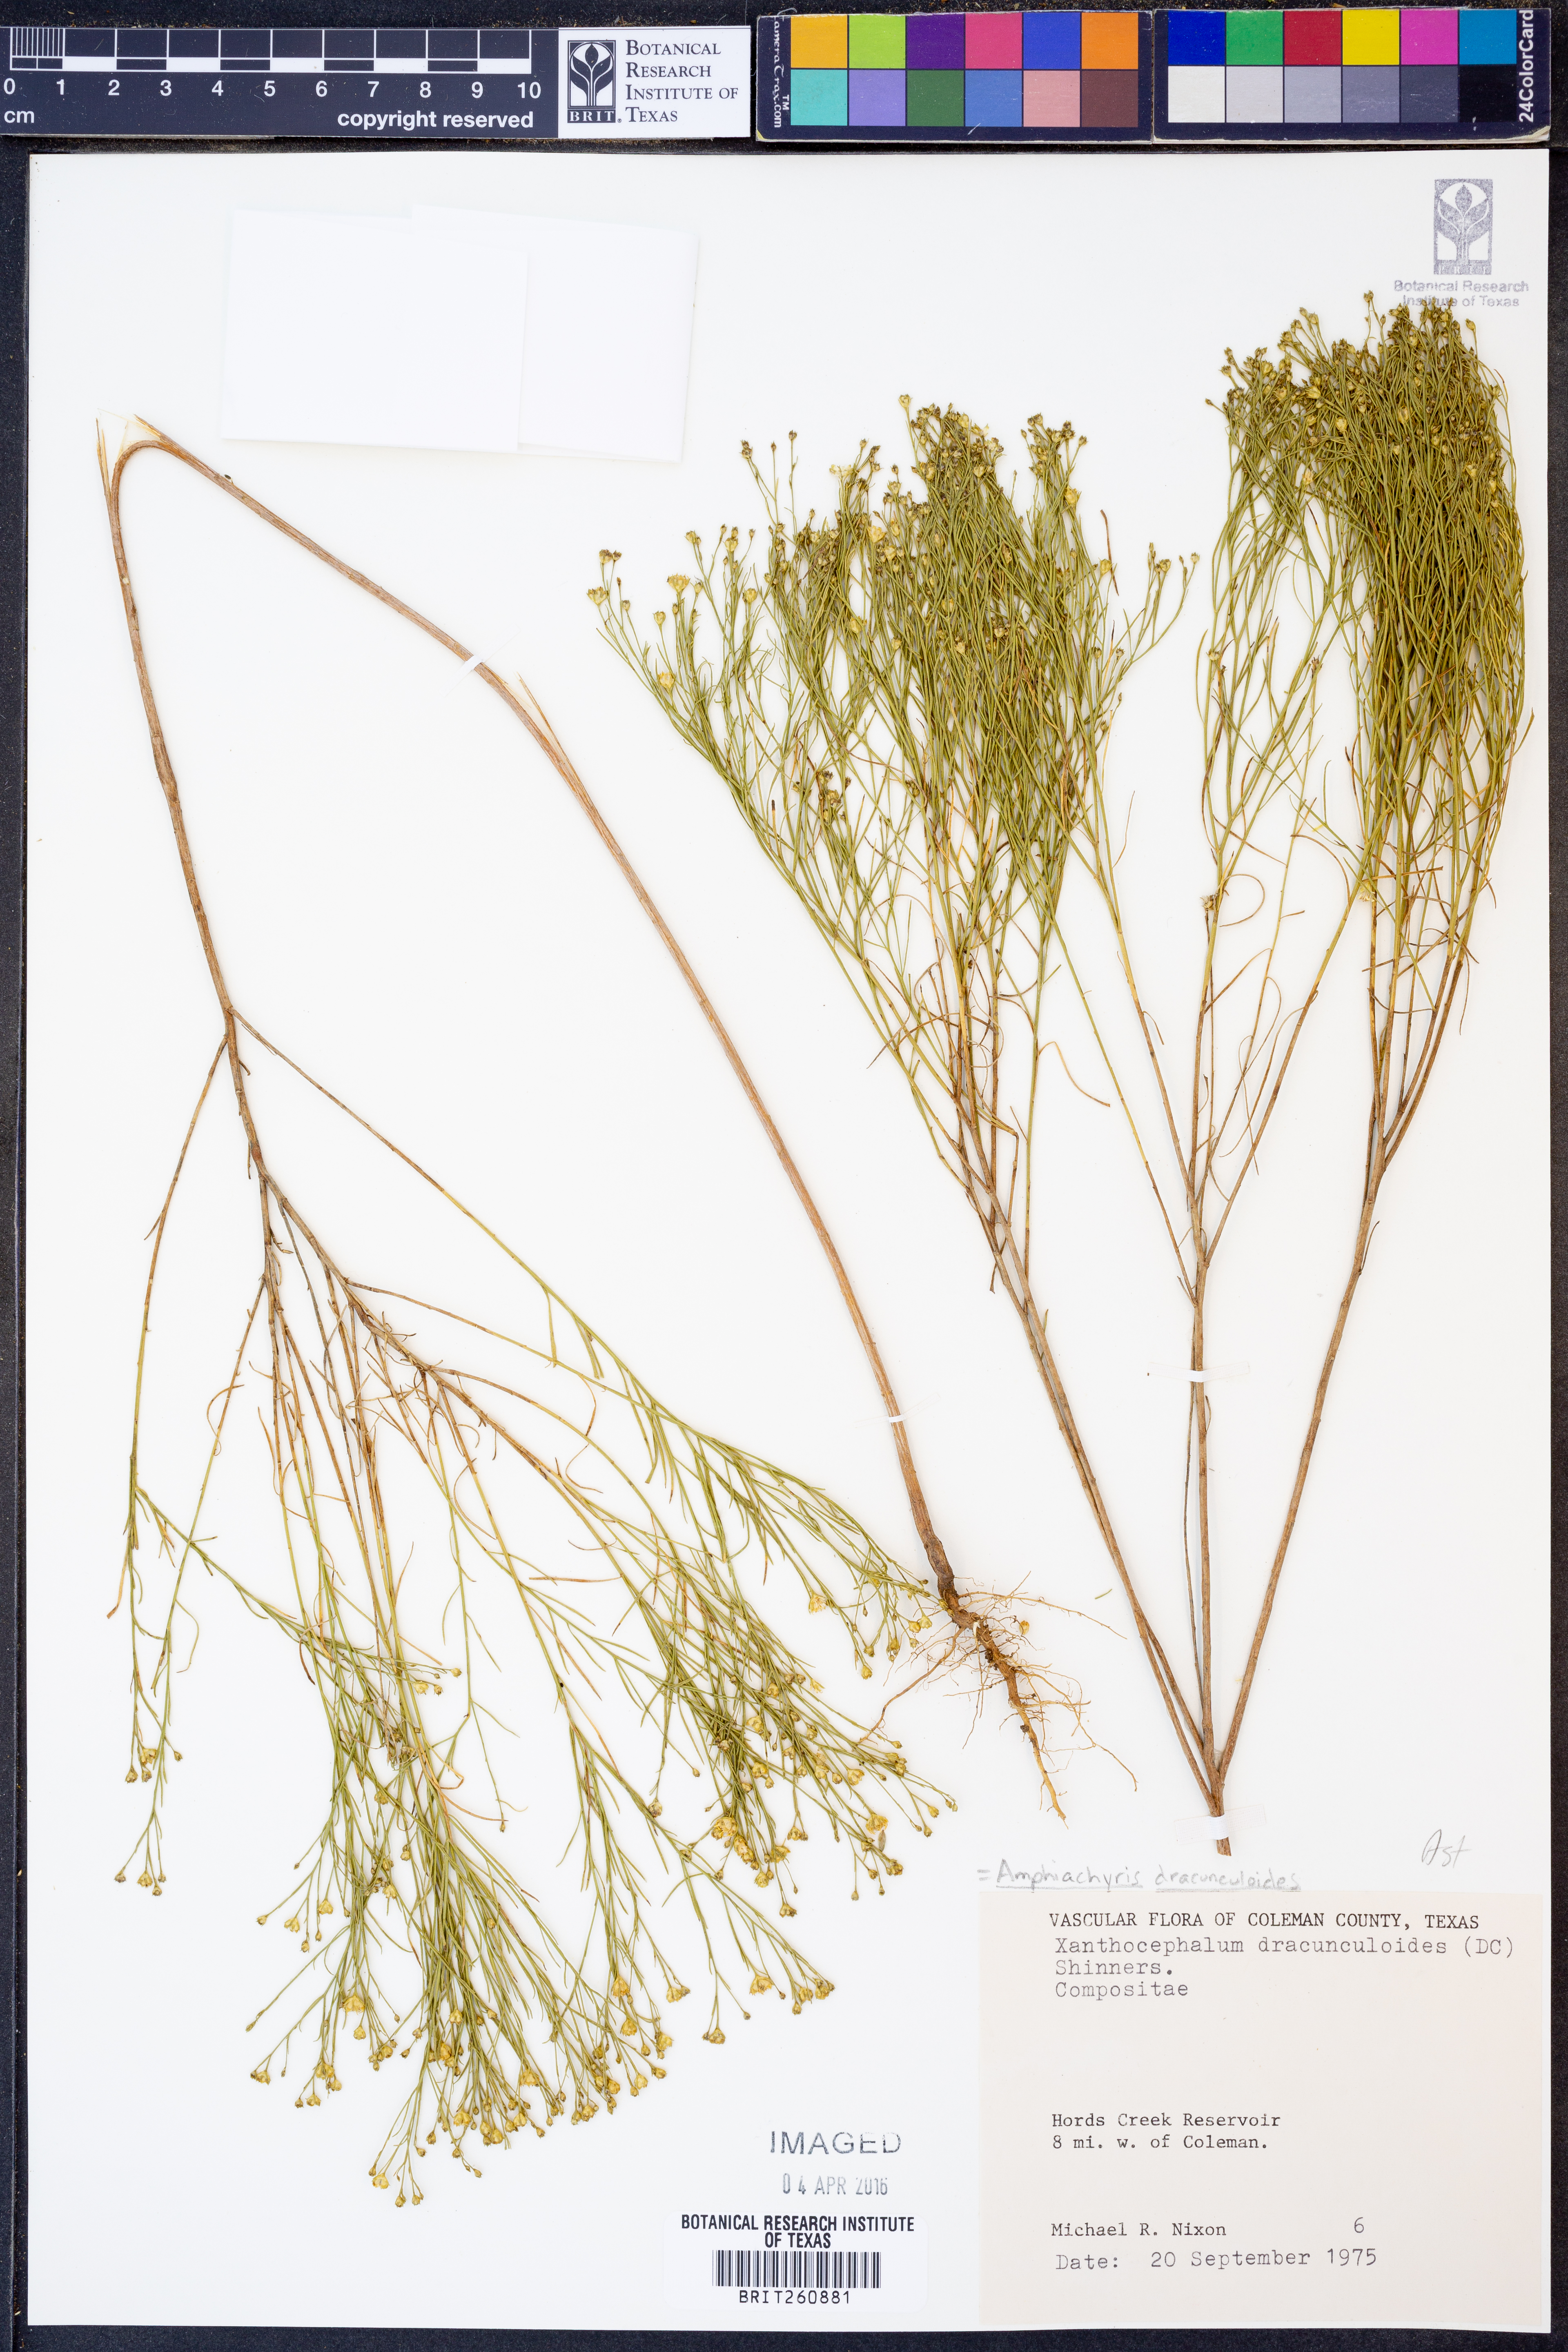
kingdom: Plantae
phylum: Tracheophyta
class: Magnoliopsida
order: Asterales
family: Asteraceae
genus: Amphiachyris
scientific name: Amphiachyris dracunculoides
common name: Broomweed
